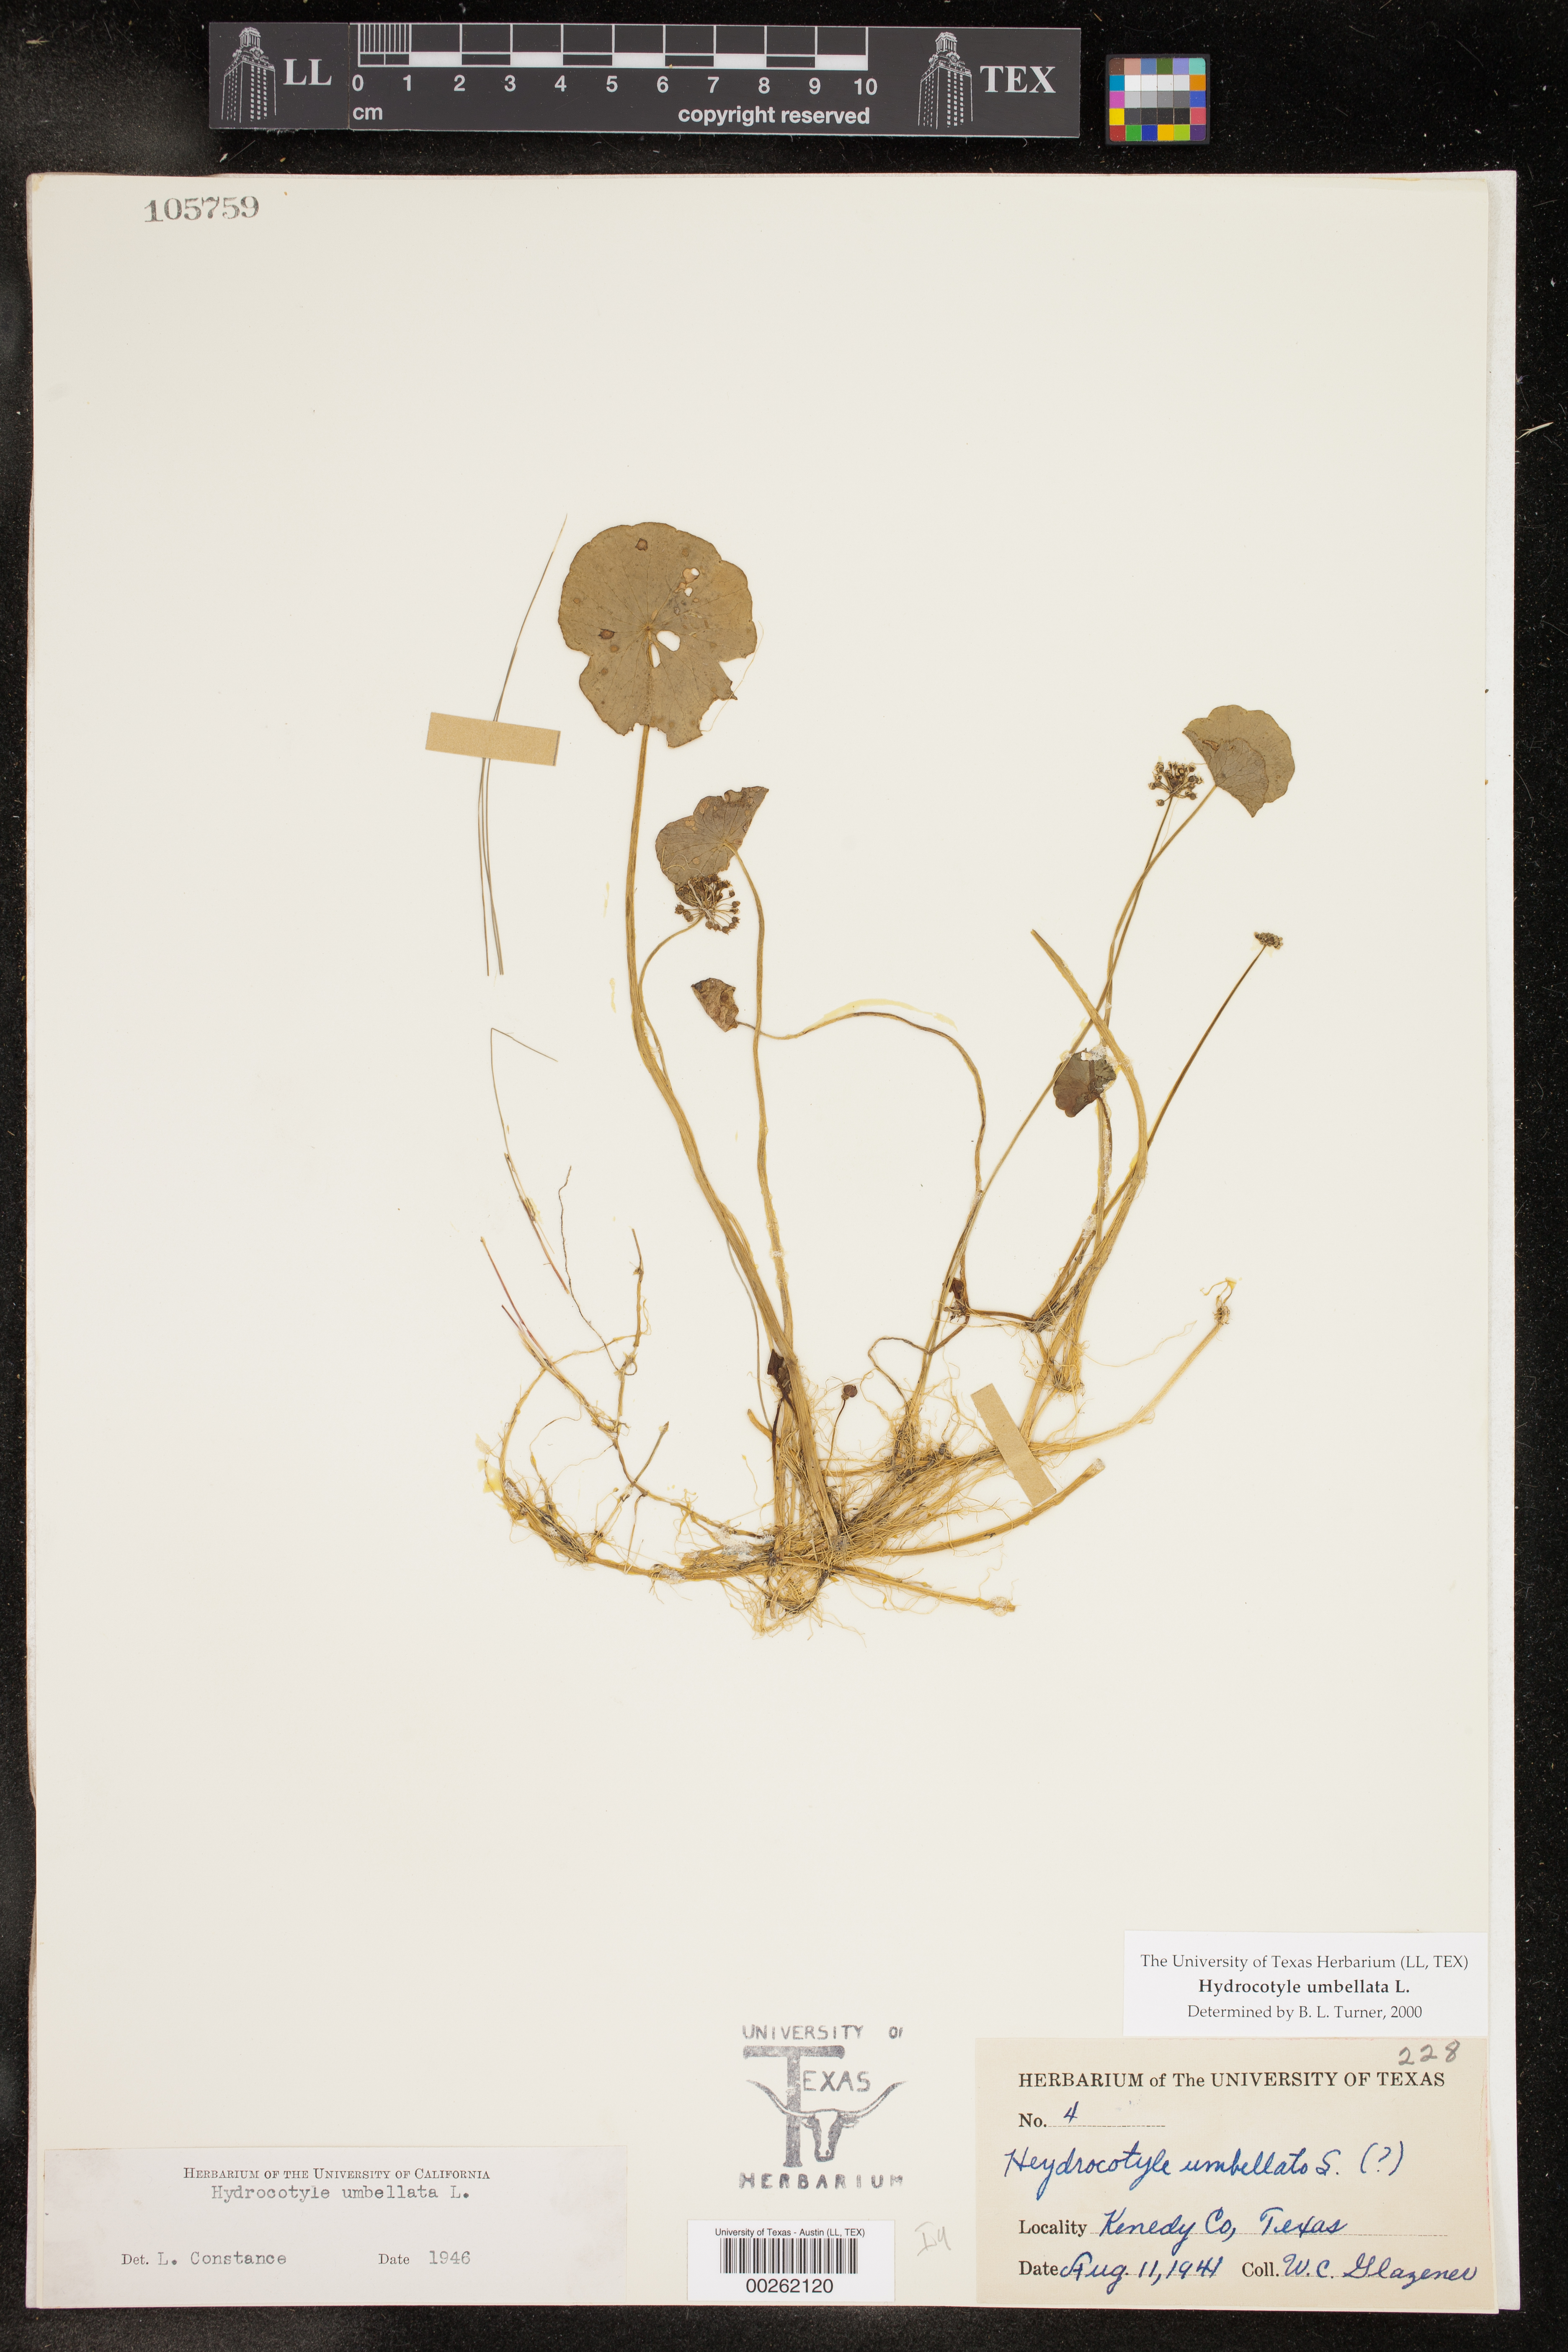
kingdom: Plantae
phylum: Tracheophyta
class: Magnoliopsida
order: Apiales
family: Araliaceae
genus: Hydrocotyle
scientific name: Hydrocotyle umbellata
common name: Water pennywort
